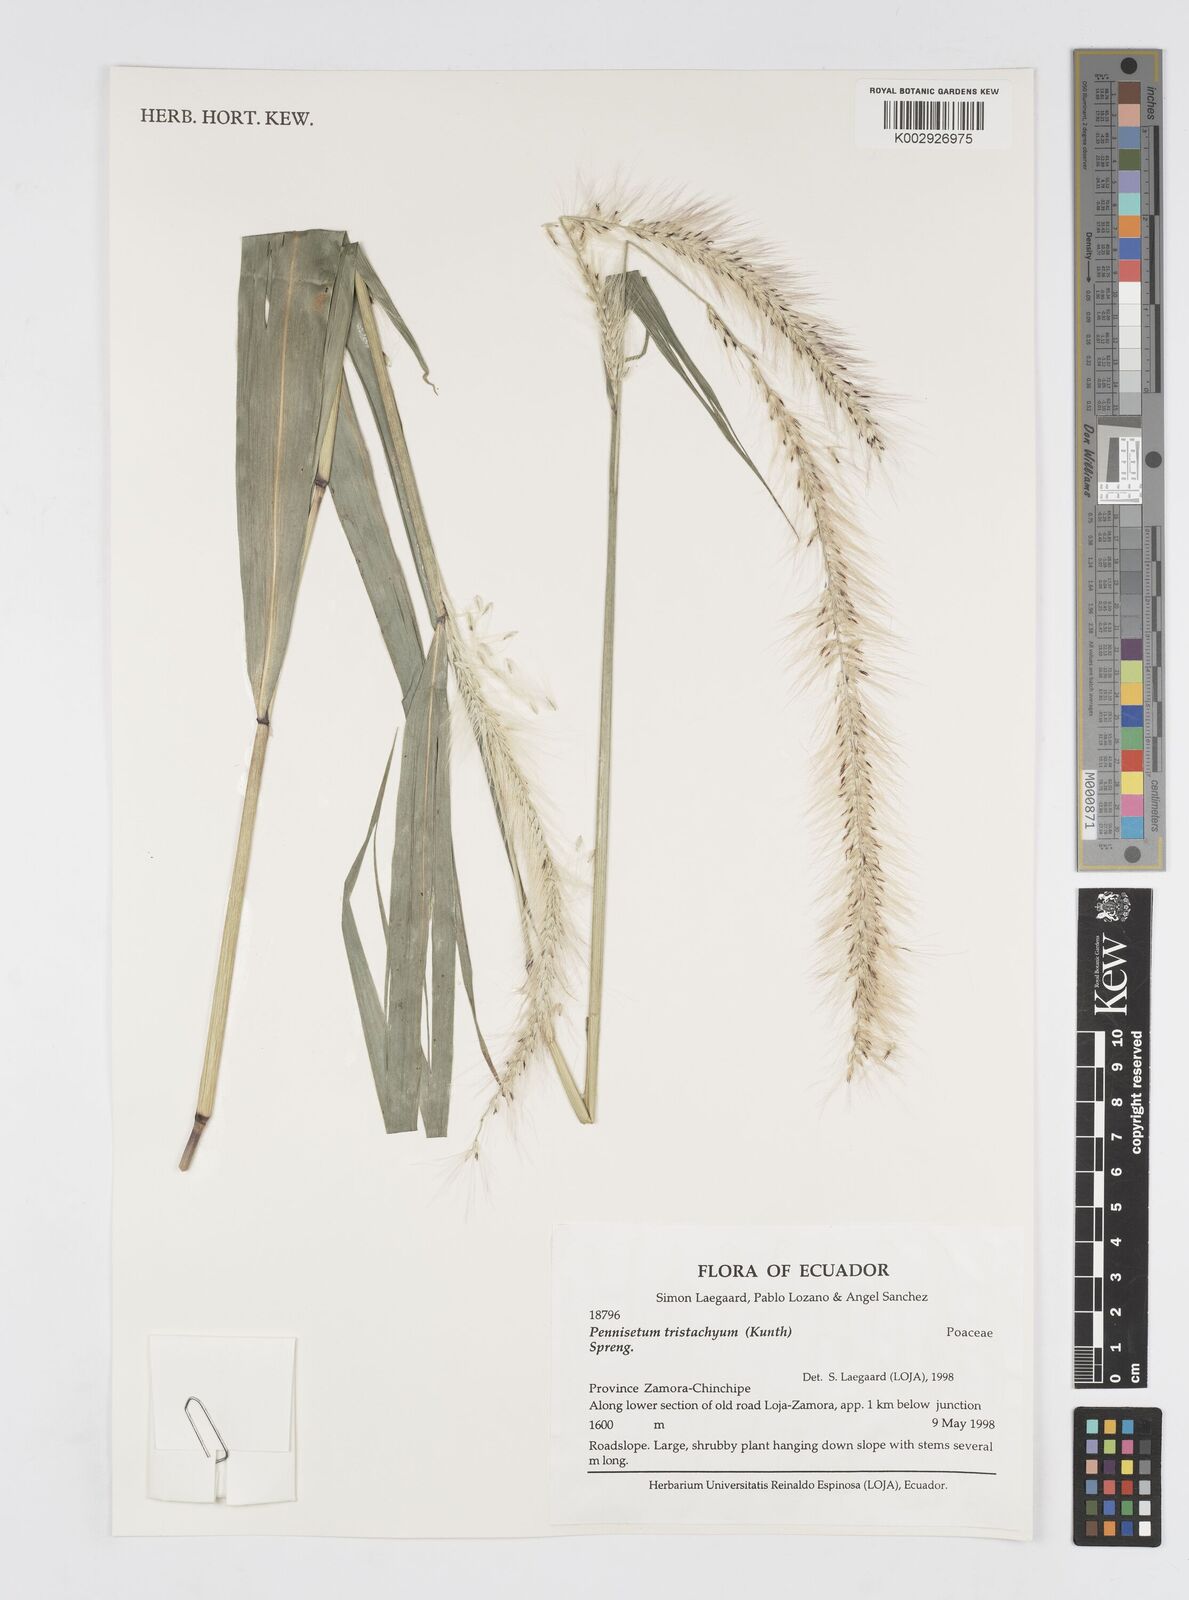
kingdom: Plantae
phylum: Tracheophyta
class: Liliopsida
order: Poales
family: Poaceae
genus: Cenchrus
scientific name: Cenchrus peruvianus
